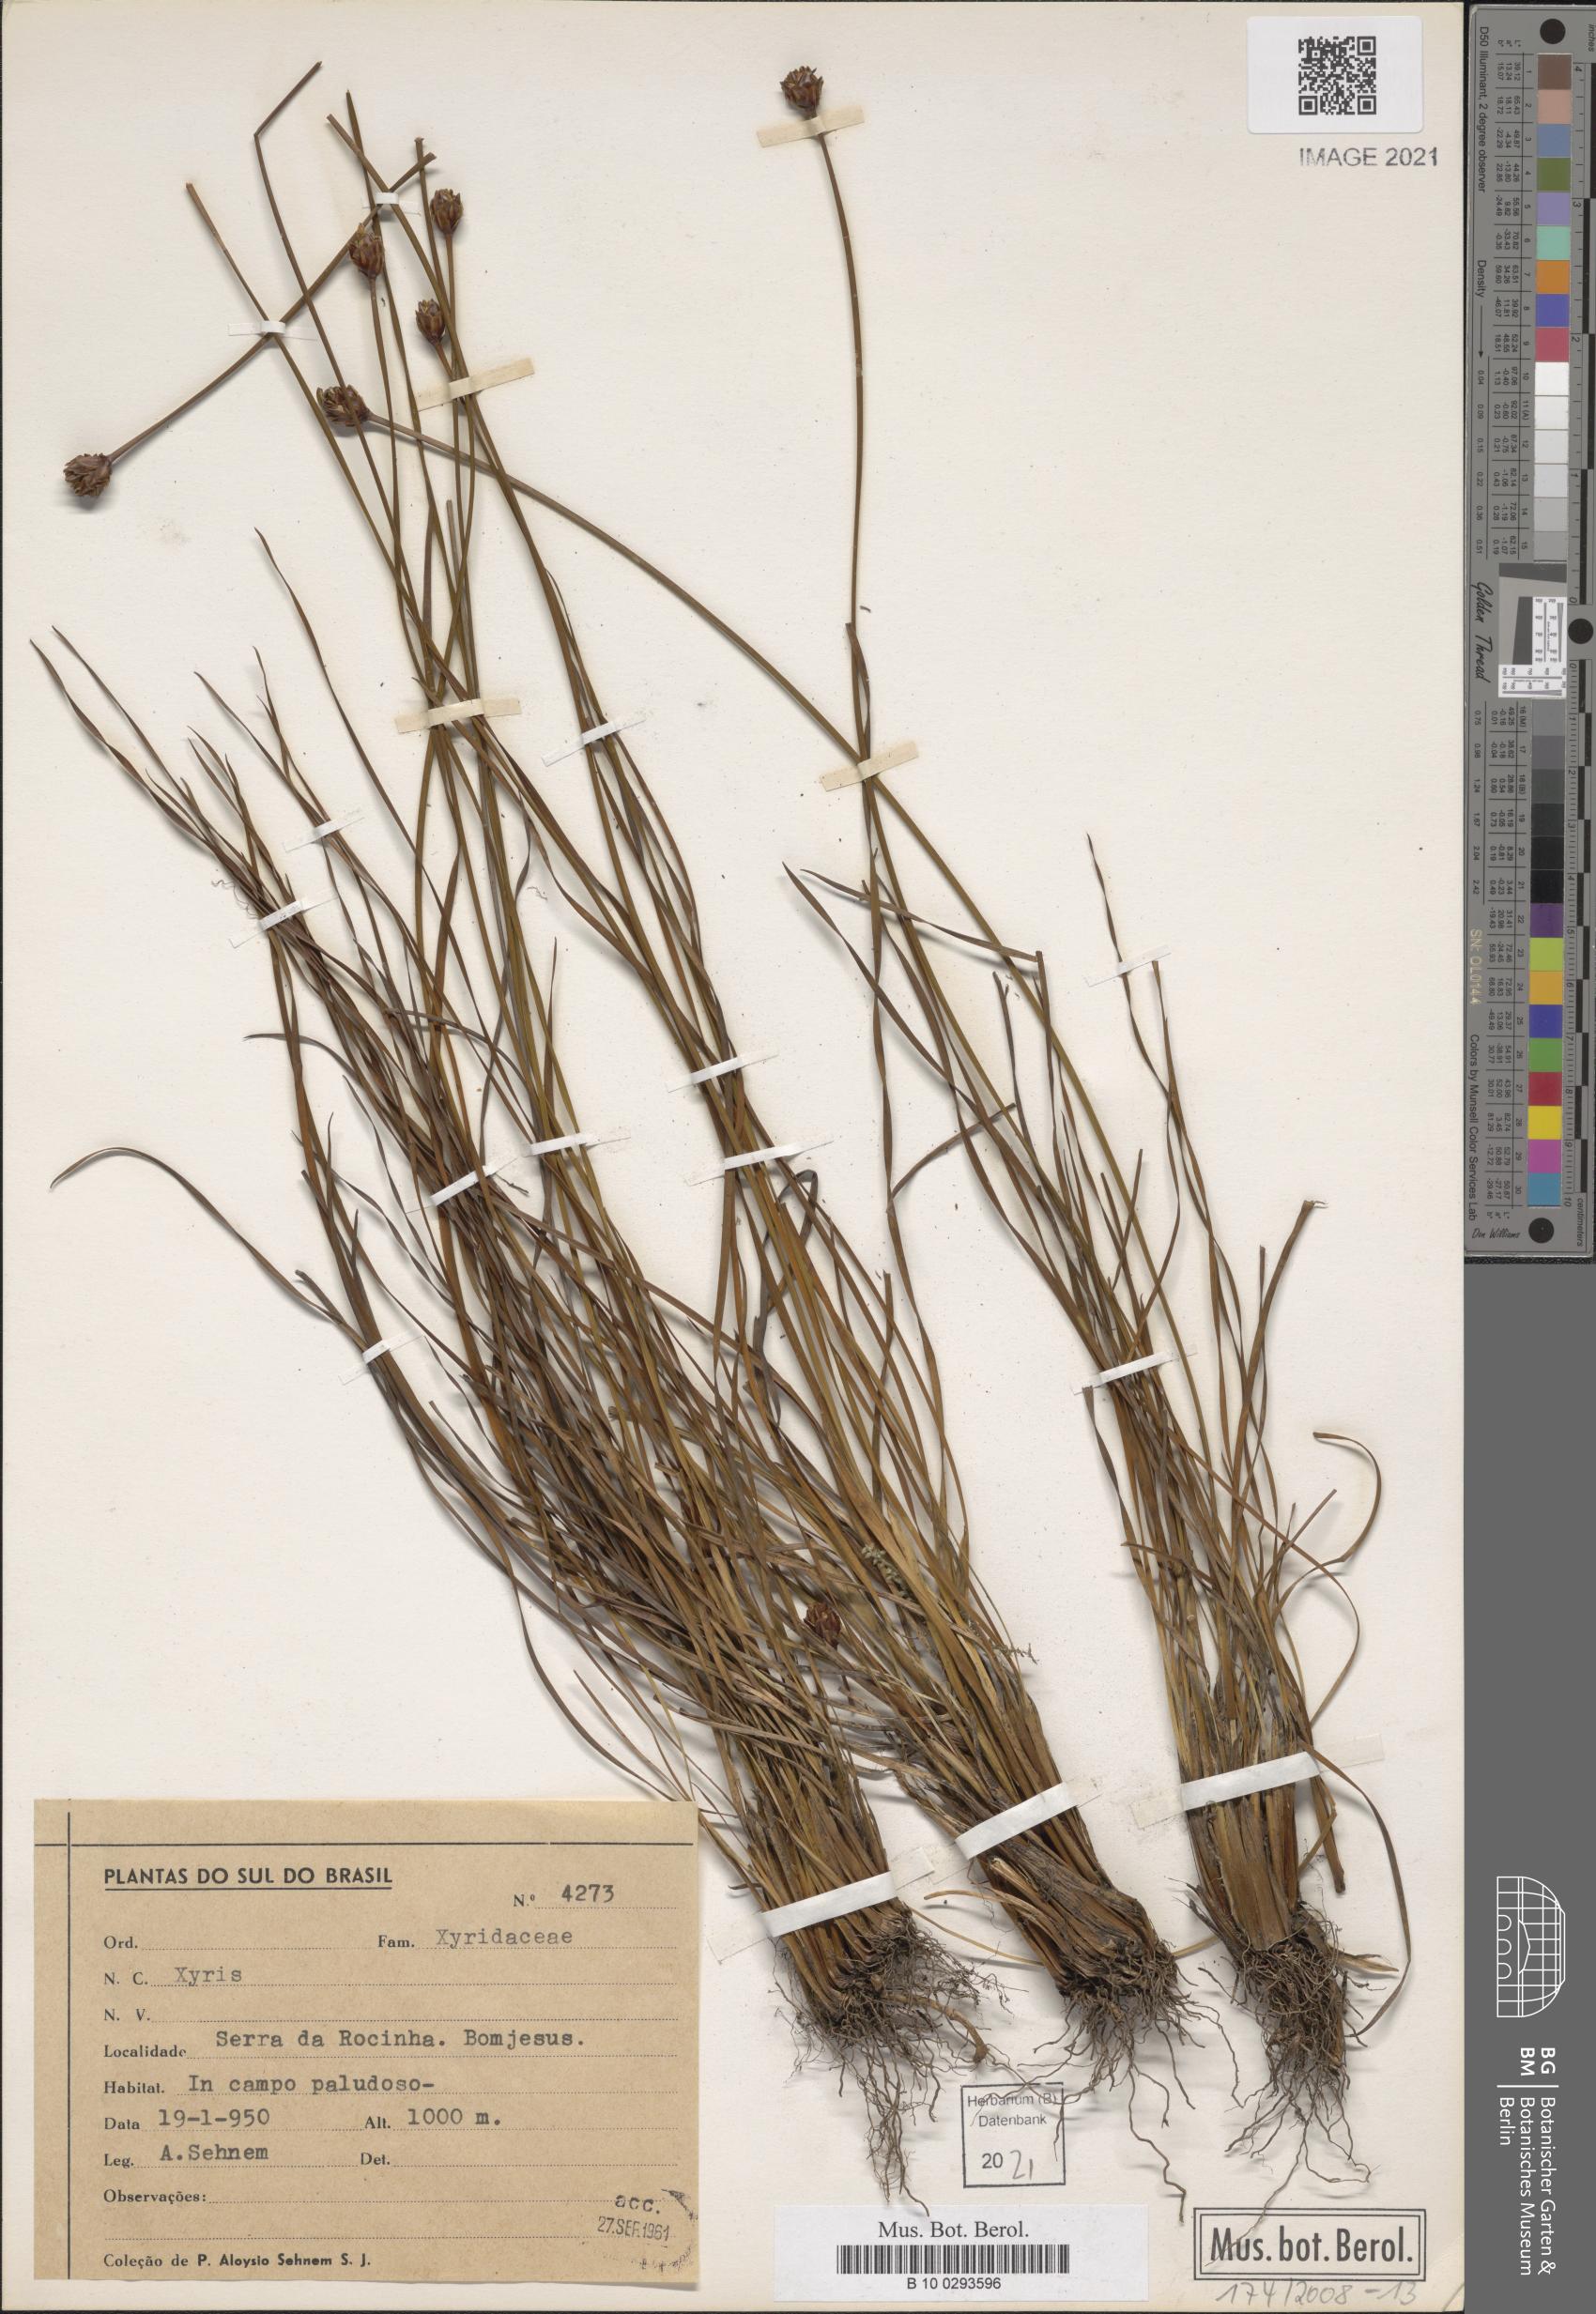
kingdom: Plantae
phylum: Tracheophyta
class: Liliopsida
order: Poales
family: Xyridaceae
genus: Xyris
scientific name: Xyris
